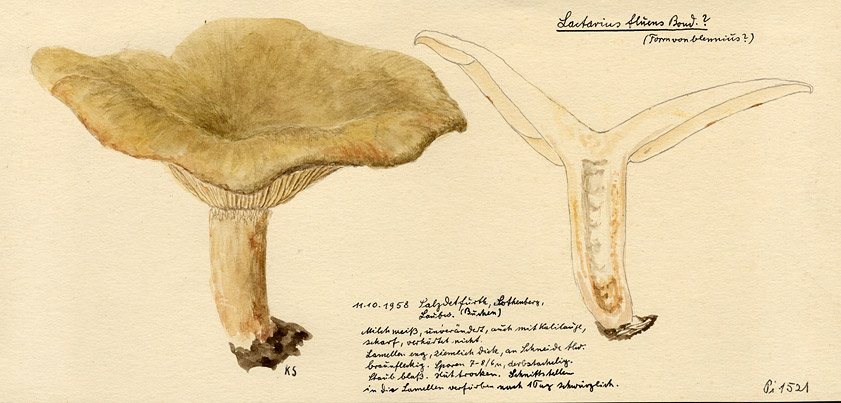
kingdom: Fungi
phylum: Basidiomycota
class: Agaricomycetes
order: Russulales
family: Russulaceae
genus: Lactarius
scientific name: Lactarius fluens
